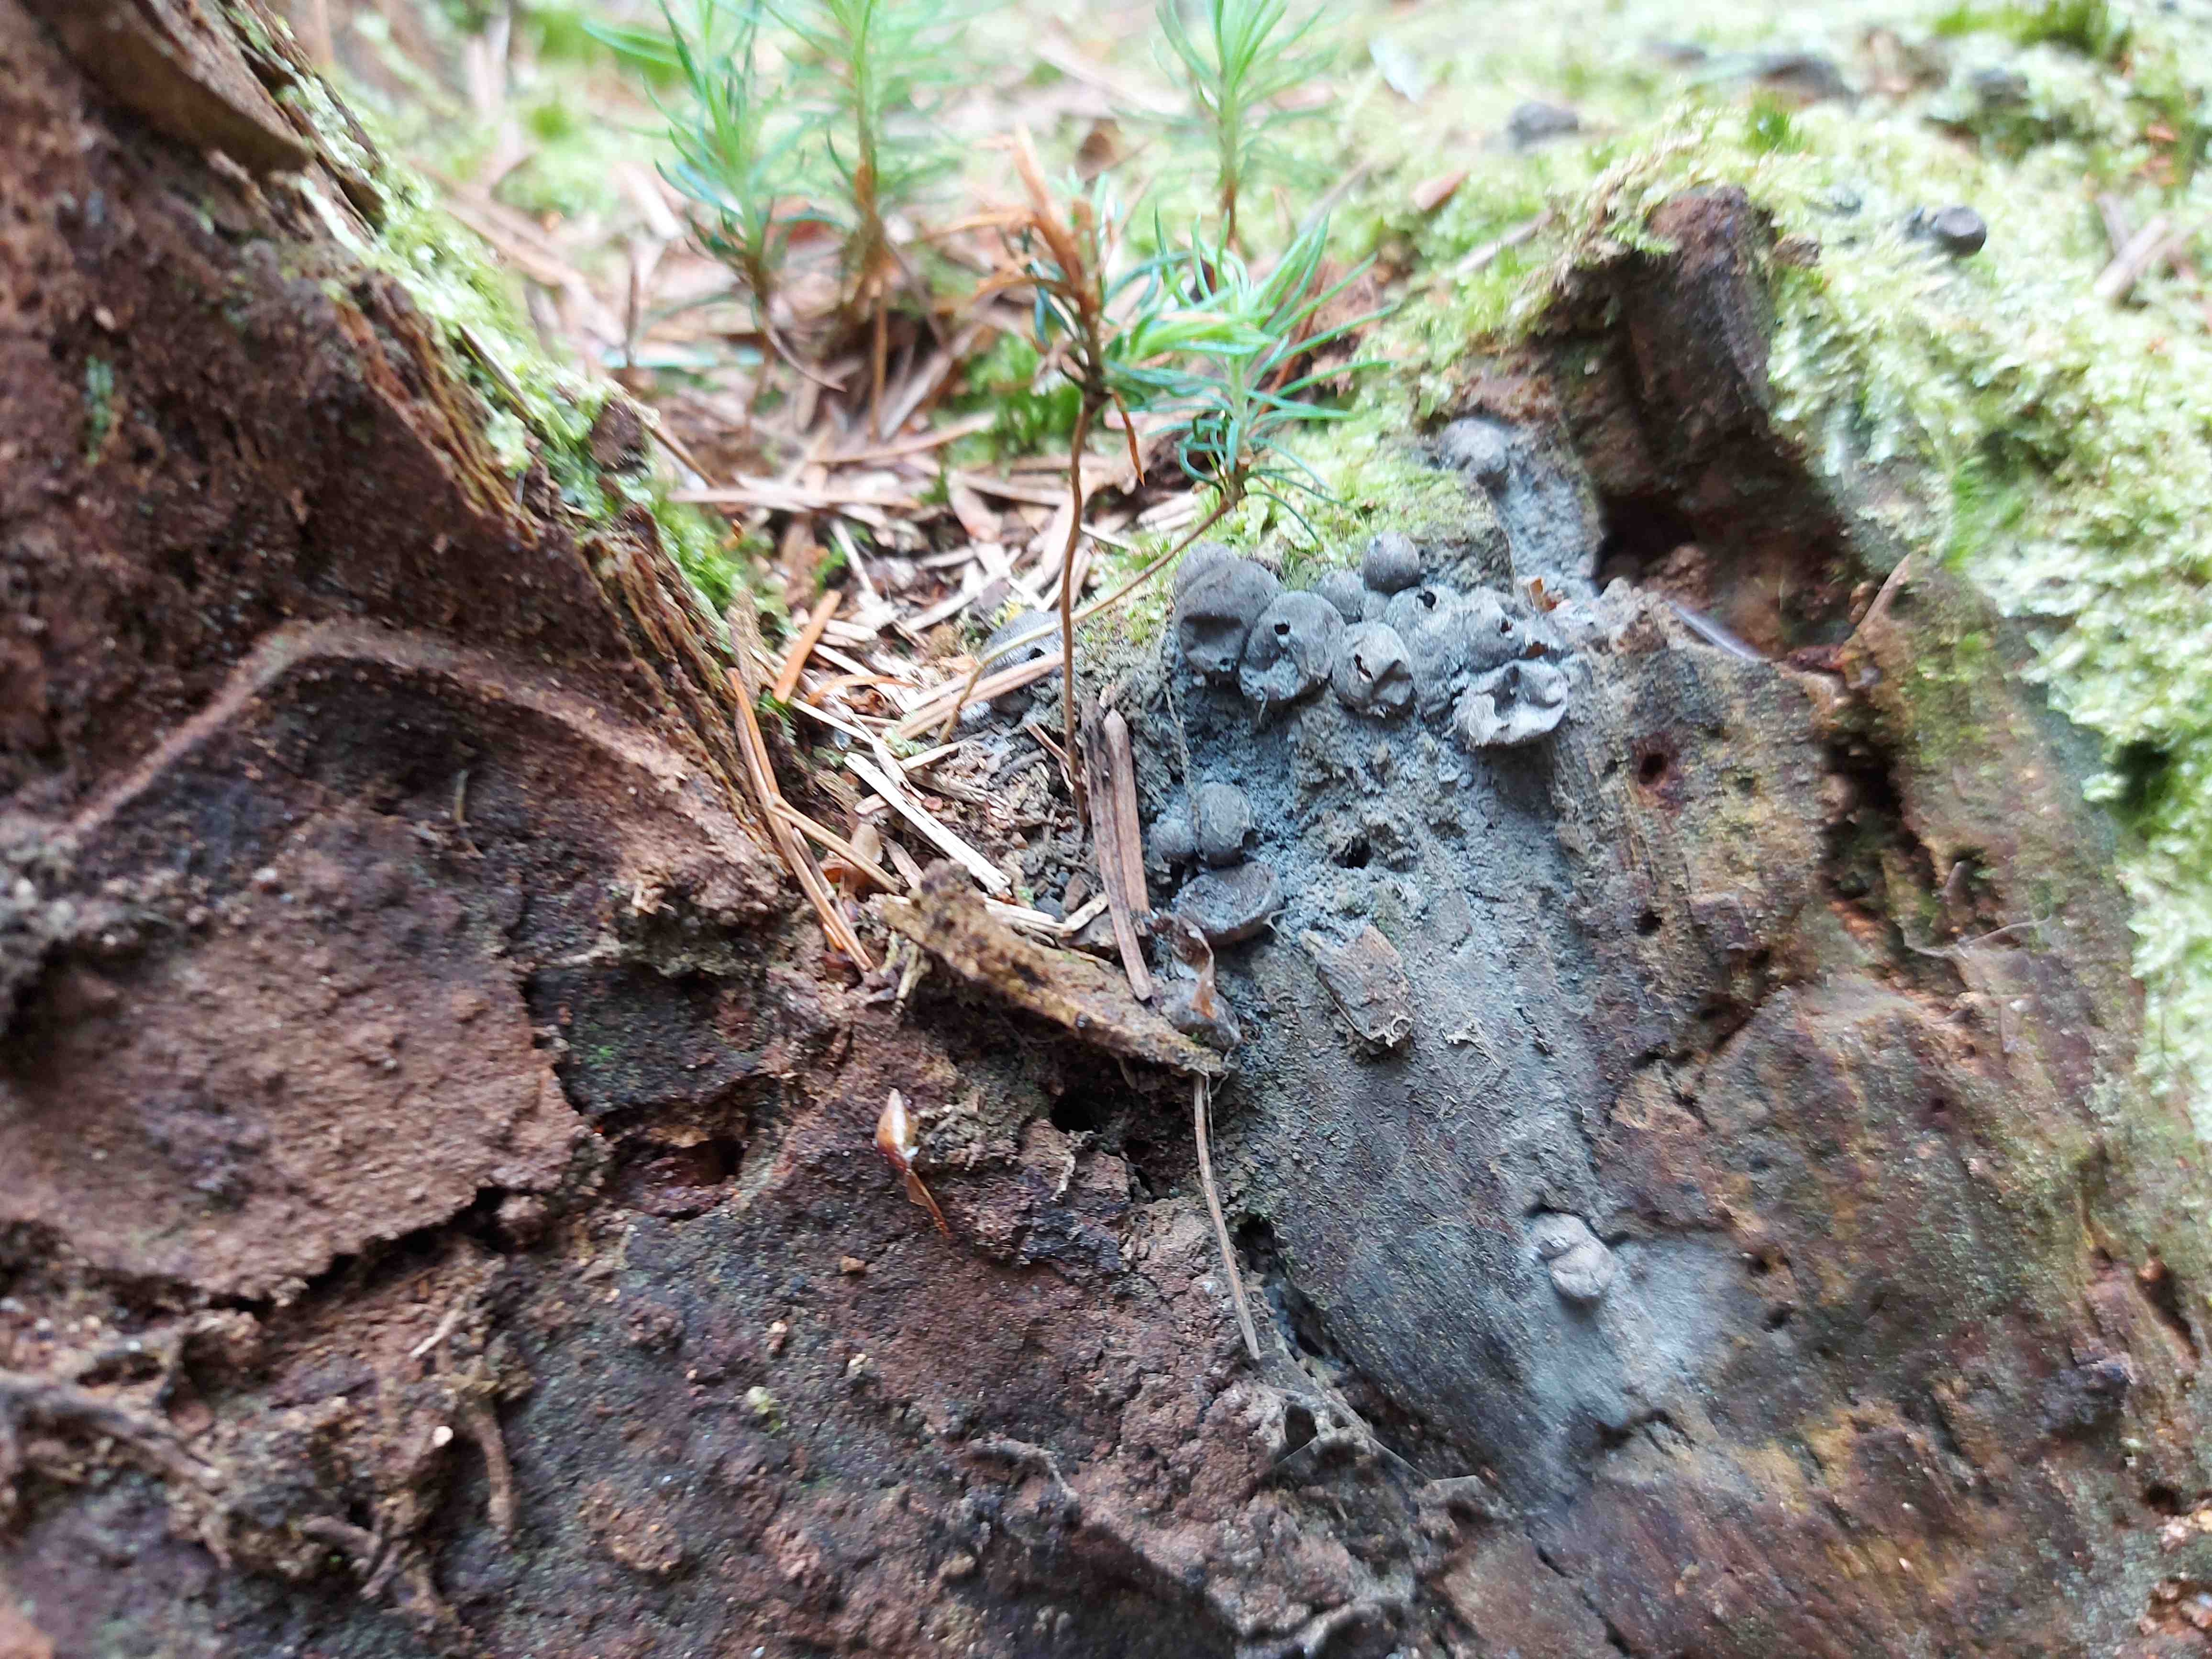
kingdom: Protozoa
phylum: Mycetozoa
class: Myxomycetes
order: Cribrariales
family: Tubiferaceae
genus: Lycogala
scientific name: Lycogala epidendrum
